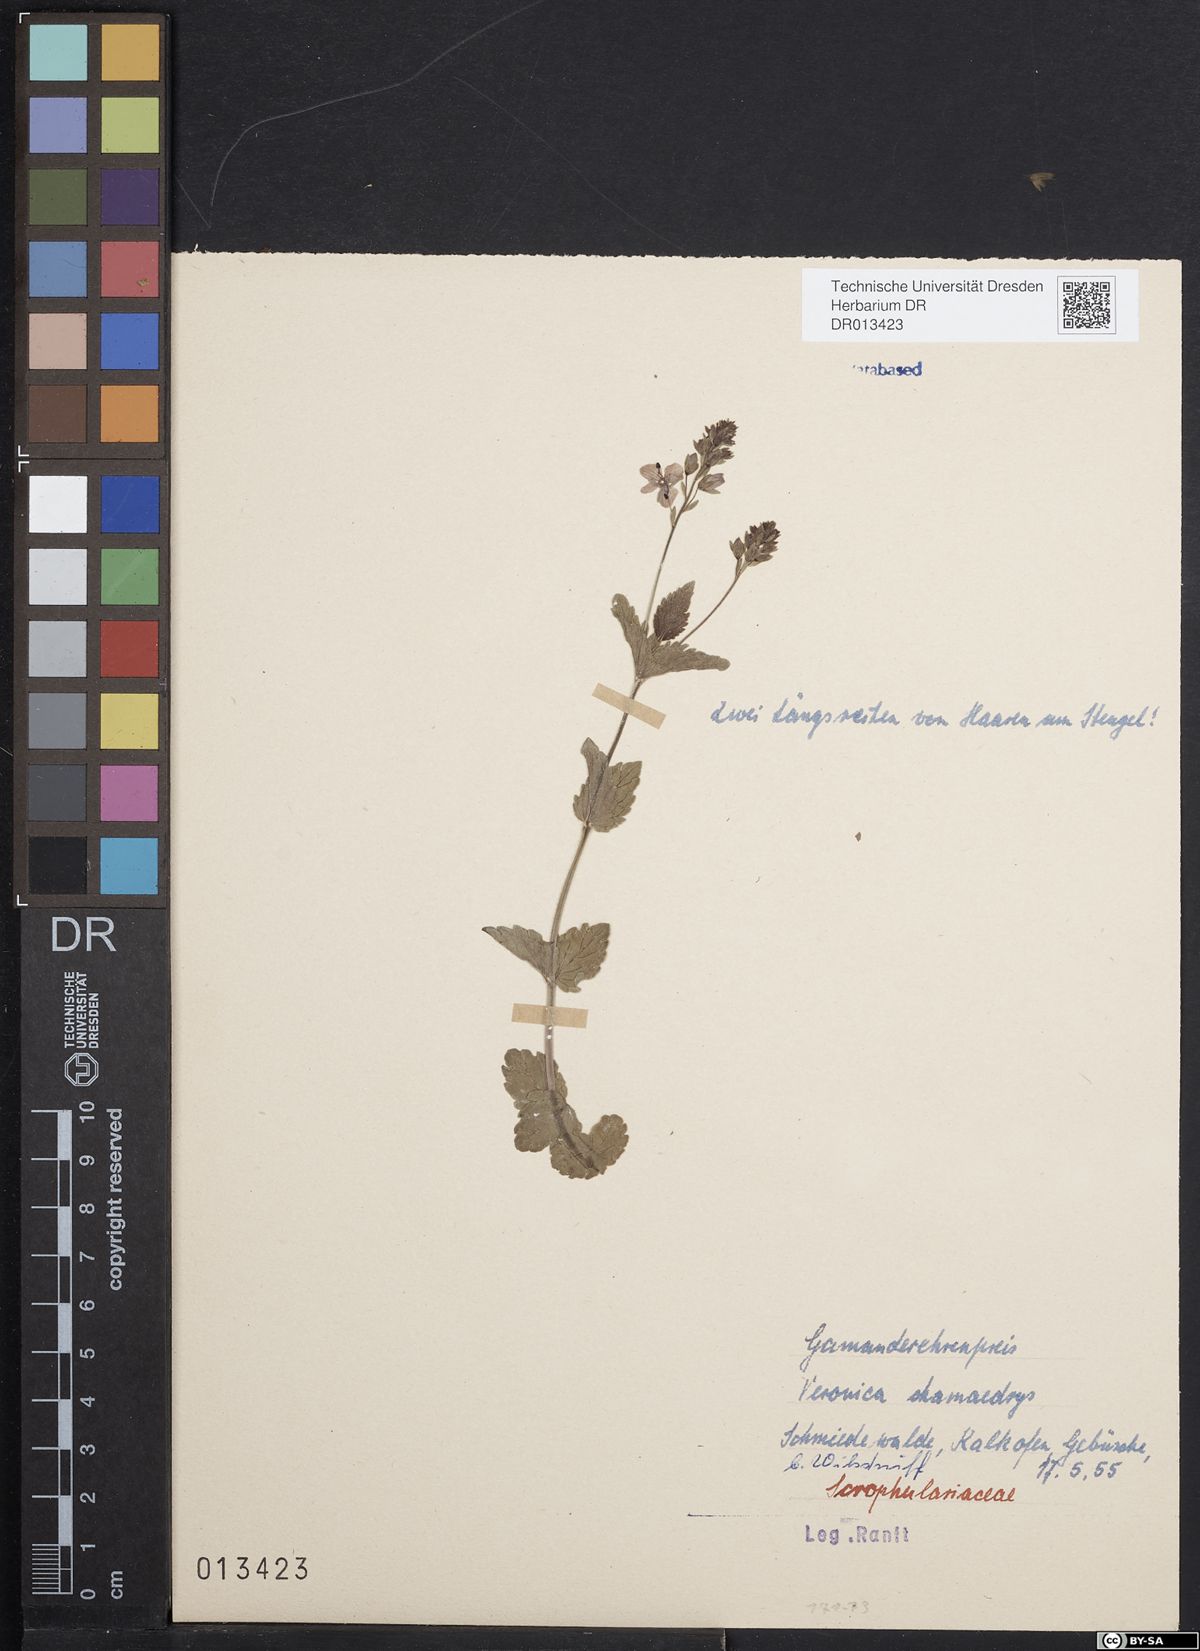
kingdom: Plantae
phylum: Tracheophyta
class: Magnoliopsida
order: Lamiales
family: Plantaginaceae
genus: Veronica
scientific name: Veronica chamaedrys
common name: Germander speedwell
